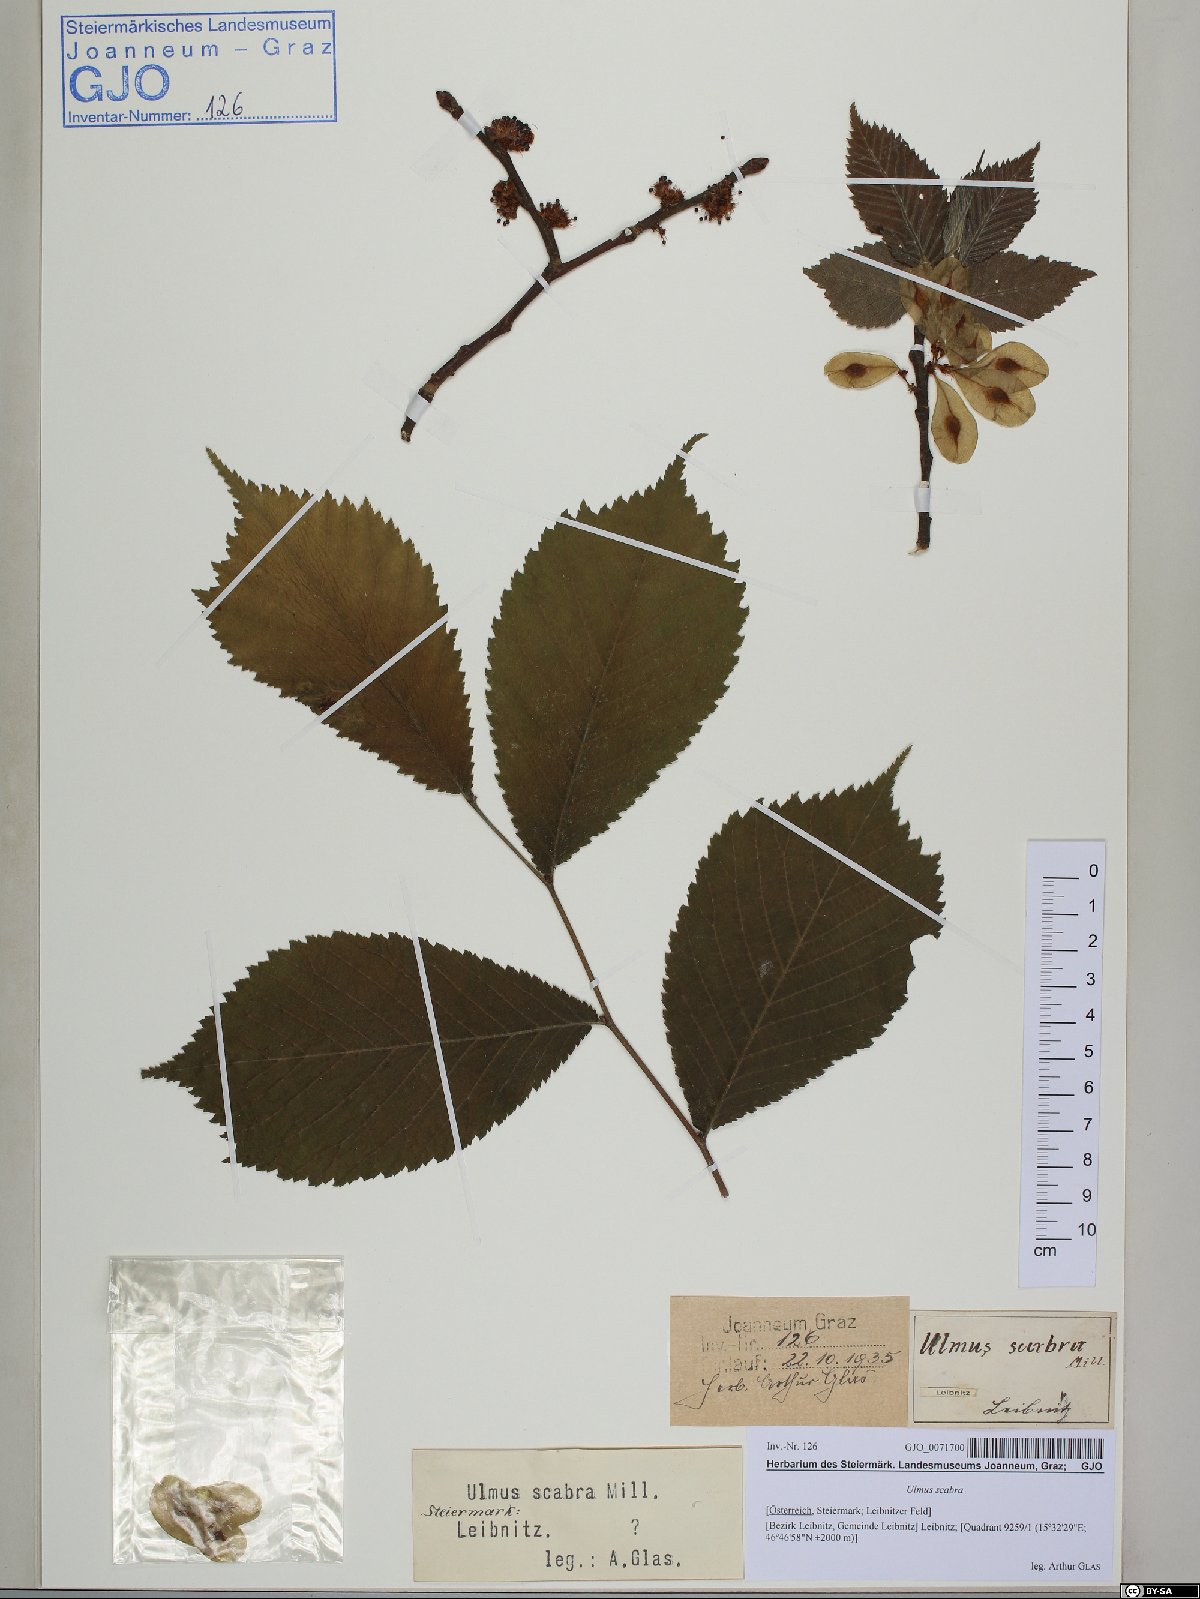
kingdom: Plantae
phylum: Tracheophyta
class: Magnoliopsida
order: Rosales
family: Ulmaceae
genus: Ulmus
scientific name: Ulmus glabra
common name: Wych elm
